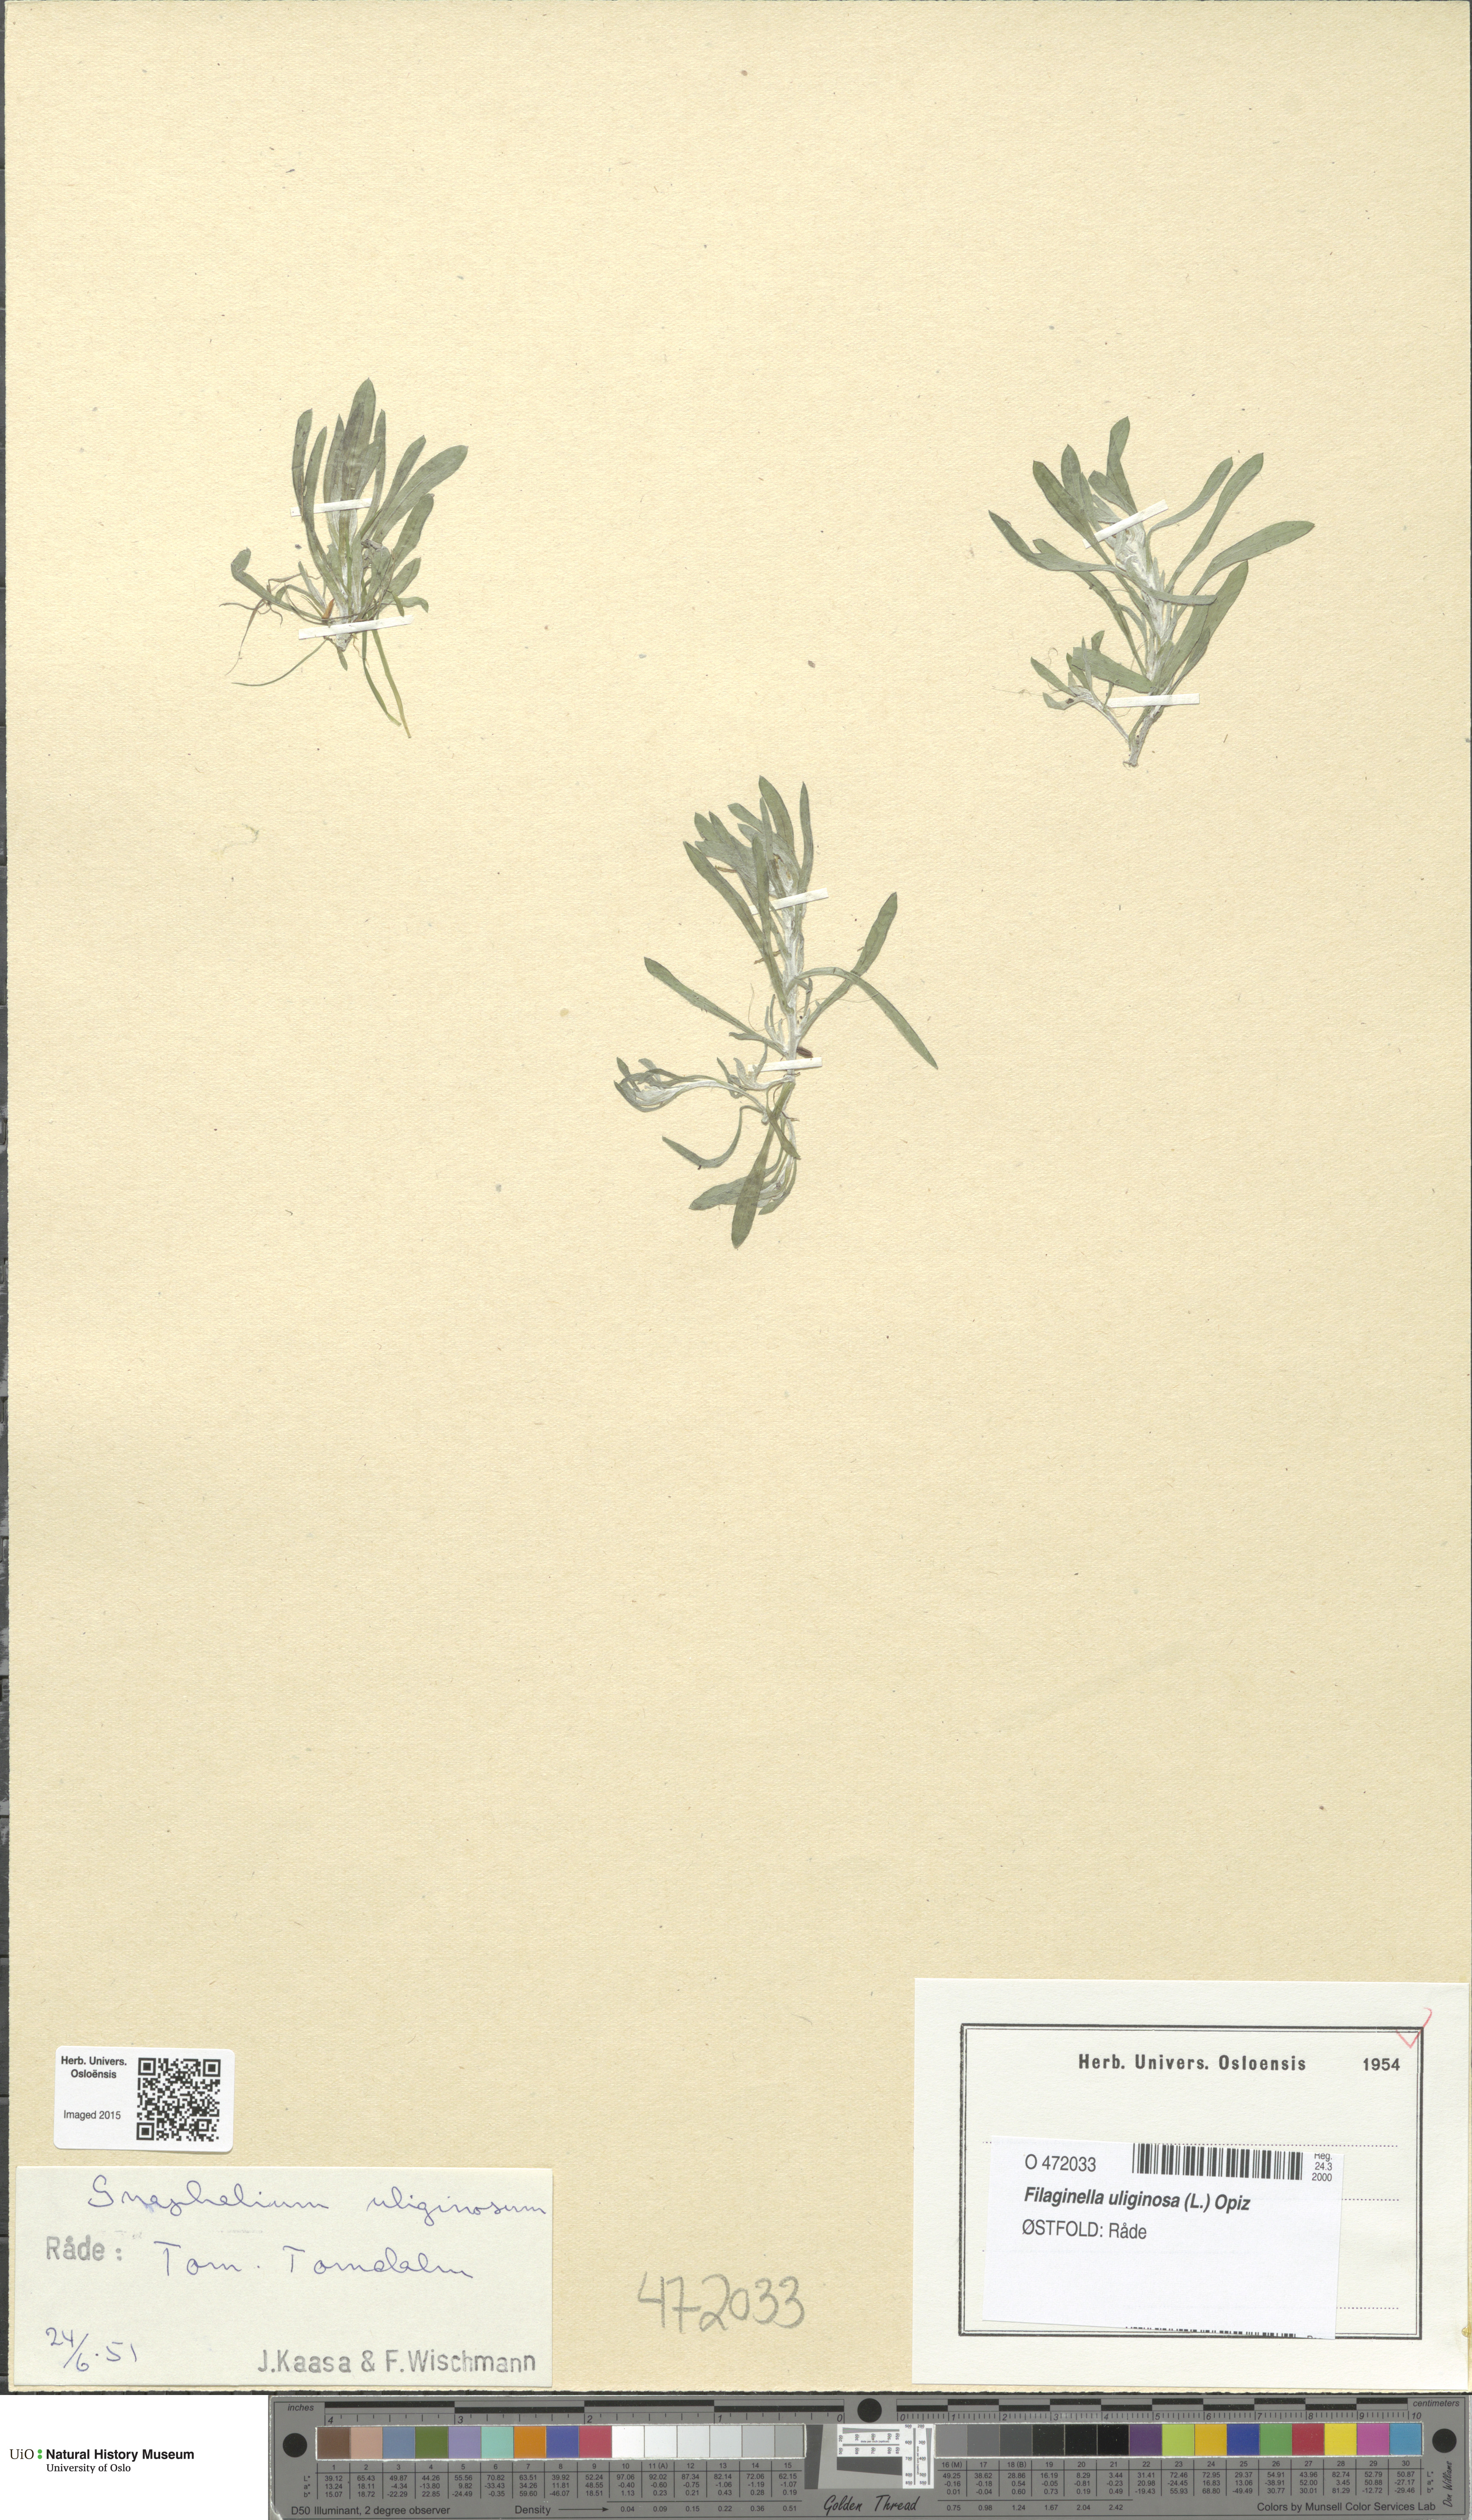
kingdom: Plantae
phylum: Tracheophyta
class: Magnoliopsida
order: Asterales
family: Asteraceae
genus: Gnaphalium
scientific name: Gnaphalium uliginosum
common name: Marsh cudweed
